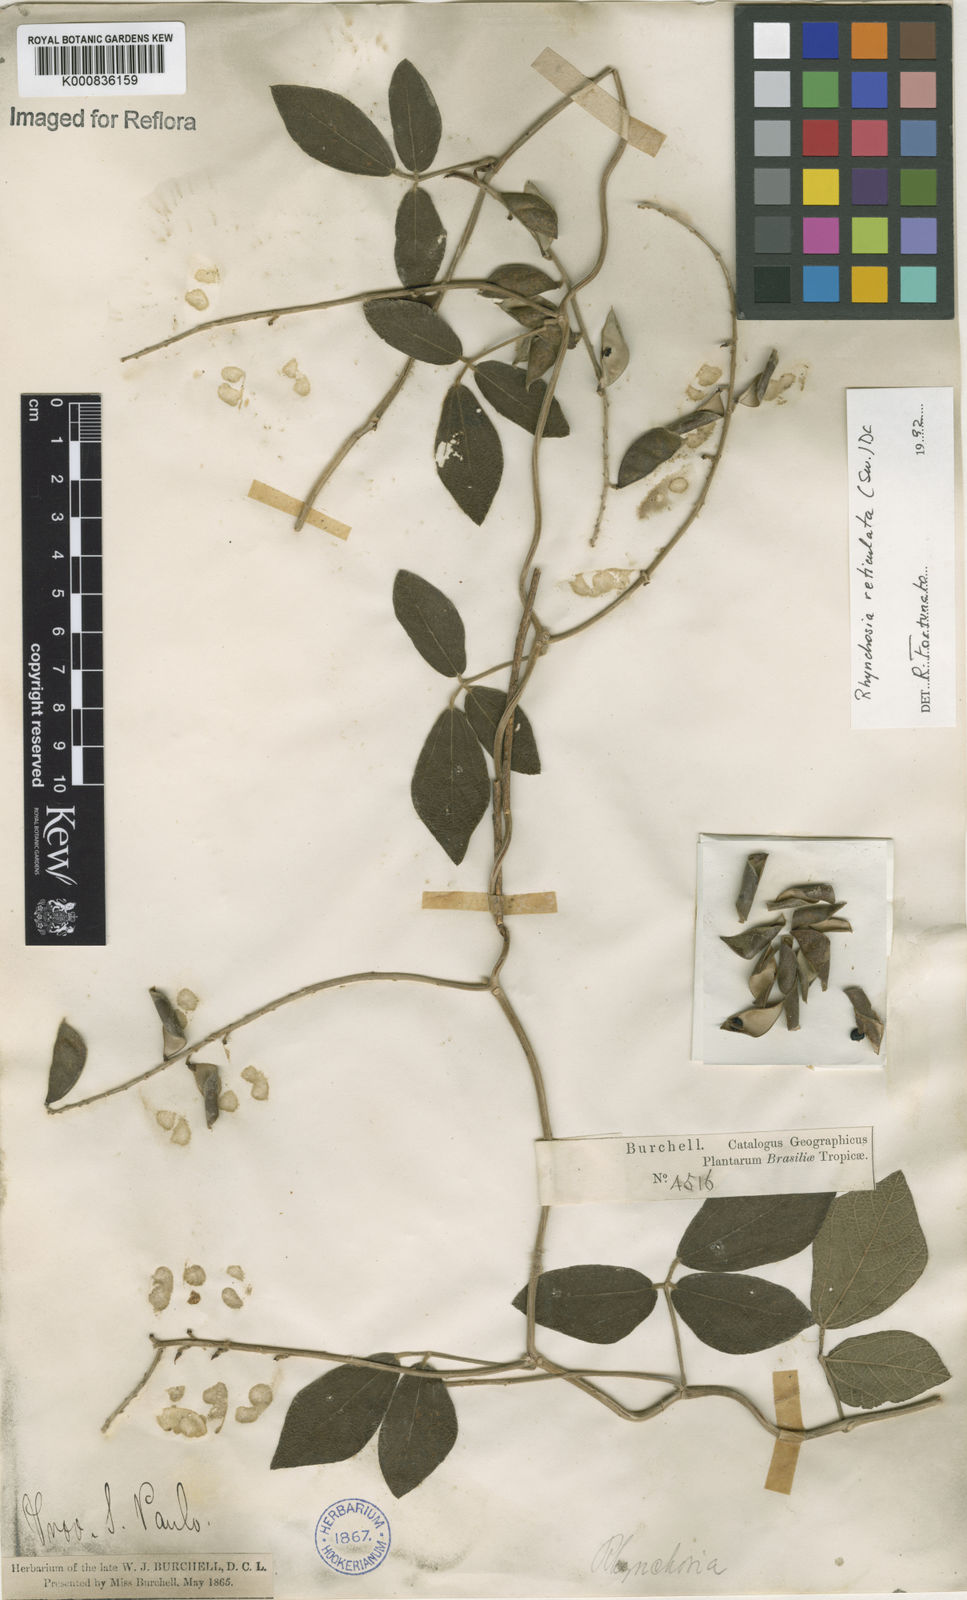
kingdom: Plantae
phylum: Tracheophyta
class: Magnoliopsida
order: Fabales
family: Fabaceae
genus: Rhynchosia
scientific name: Rhynchosia reticulata
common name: Pea withe
